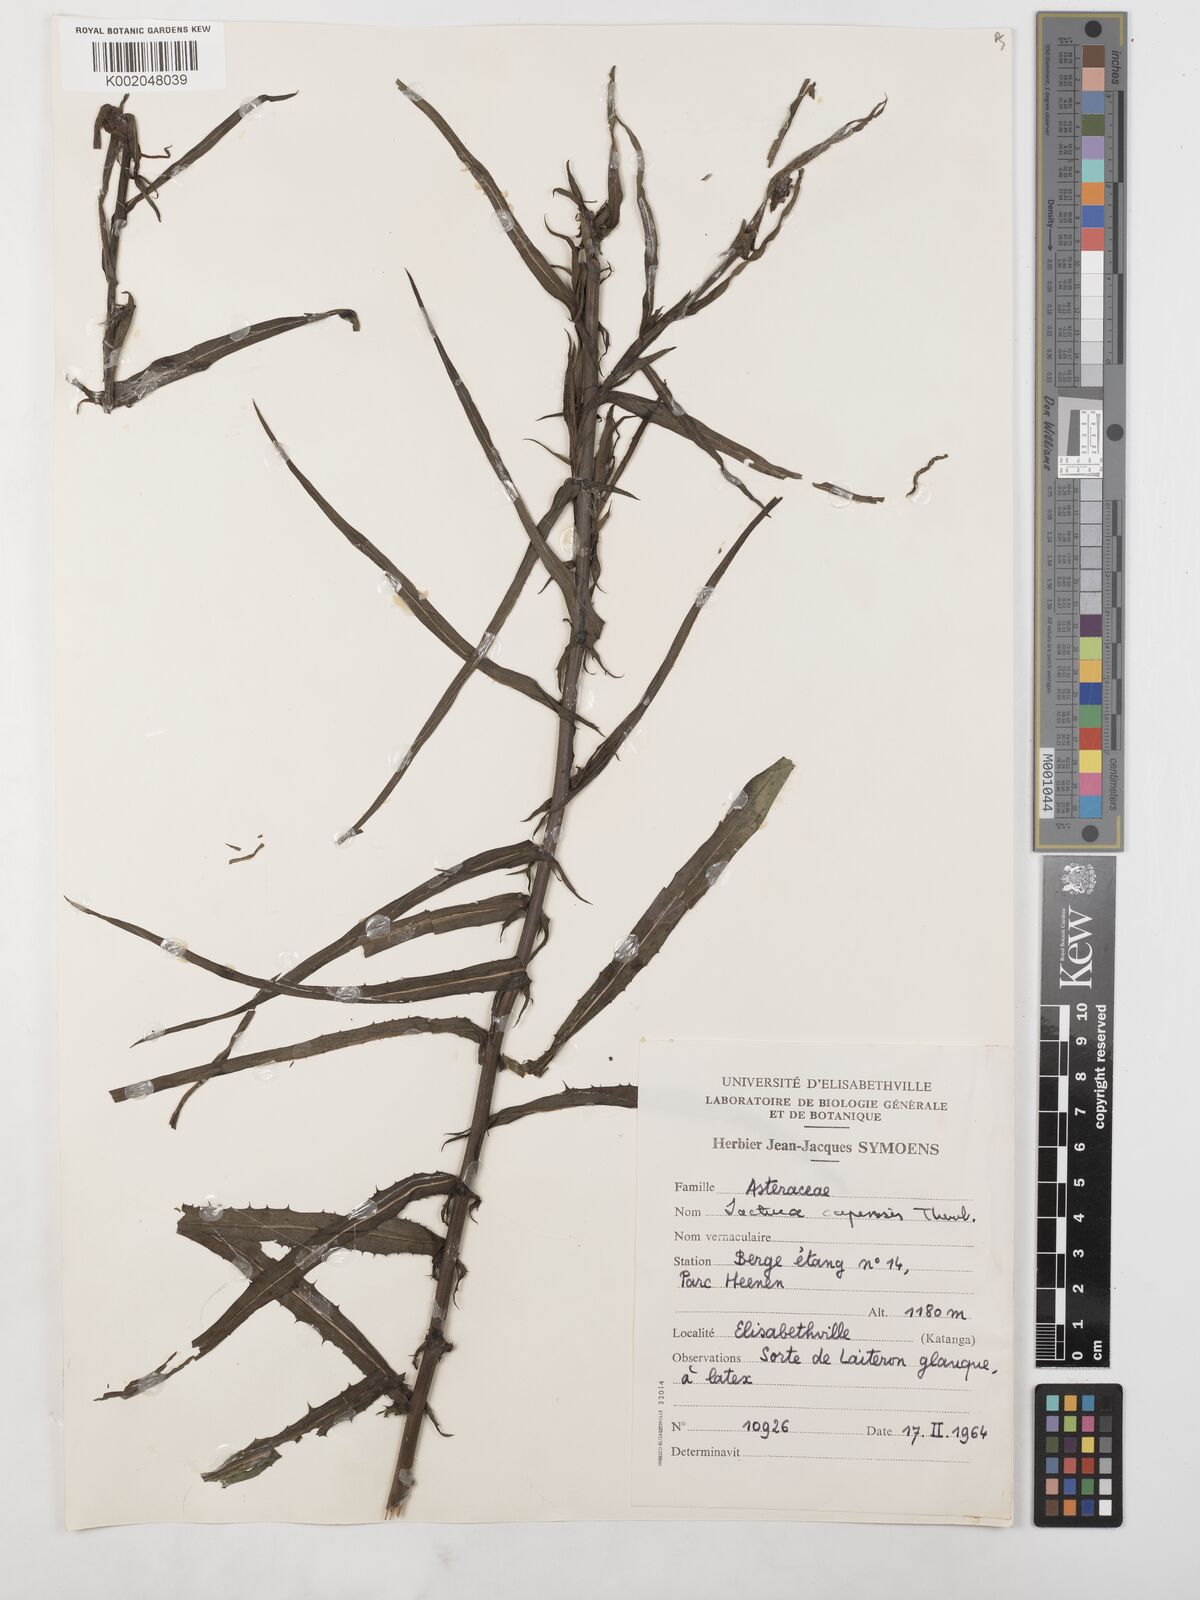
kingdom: Plantae
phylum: Tracheophyta
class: Magnoliopsida
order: Asterales
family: Asteraceae
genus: Lactuca
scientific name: Lactuca inermis
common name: Wild lettuce
